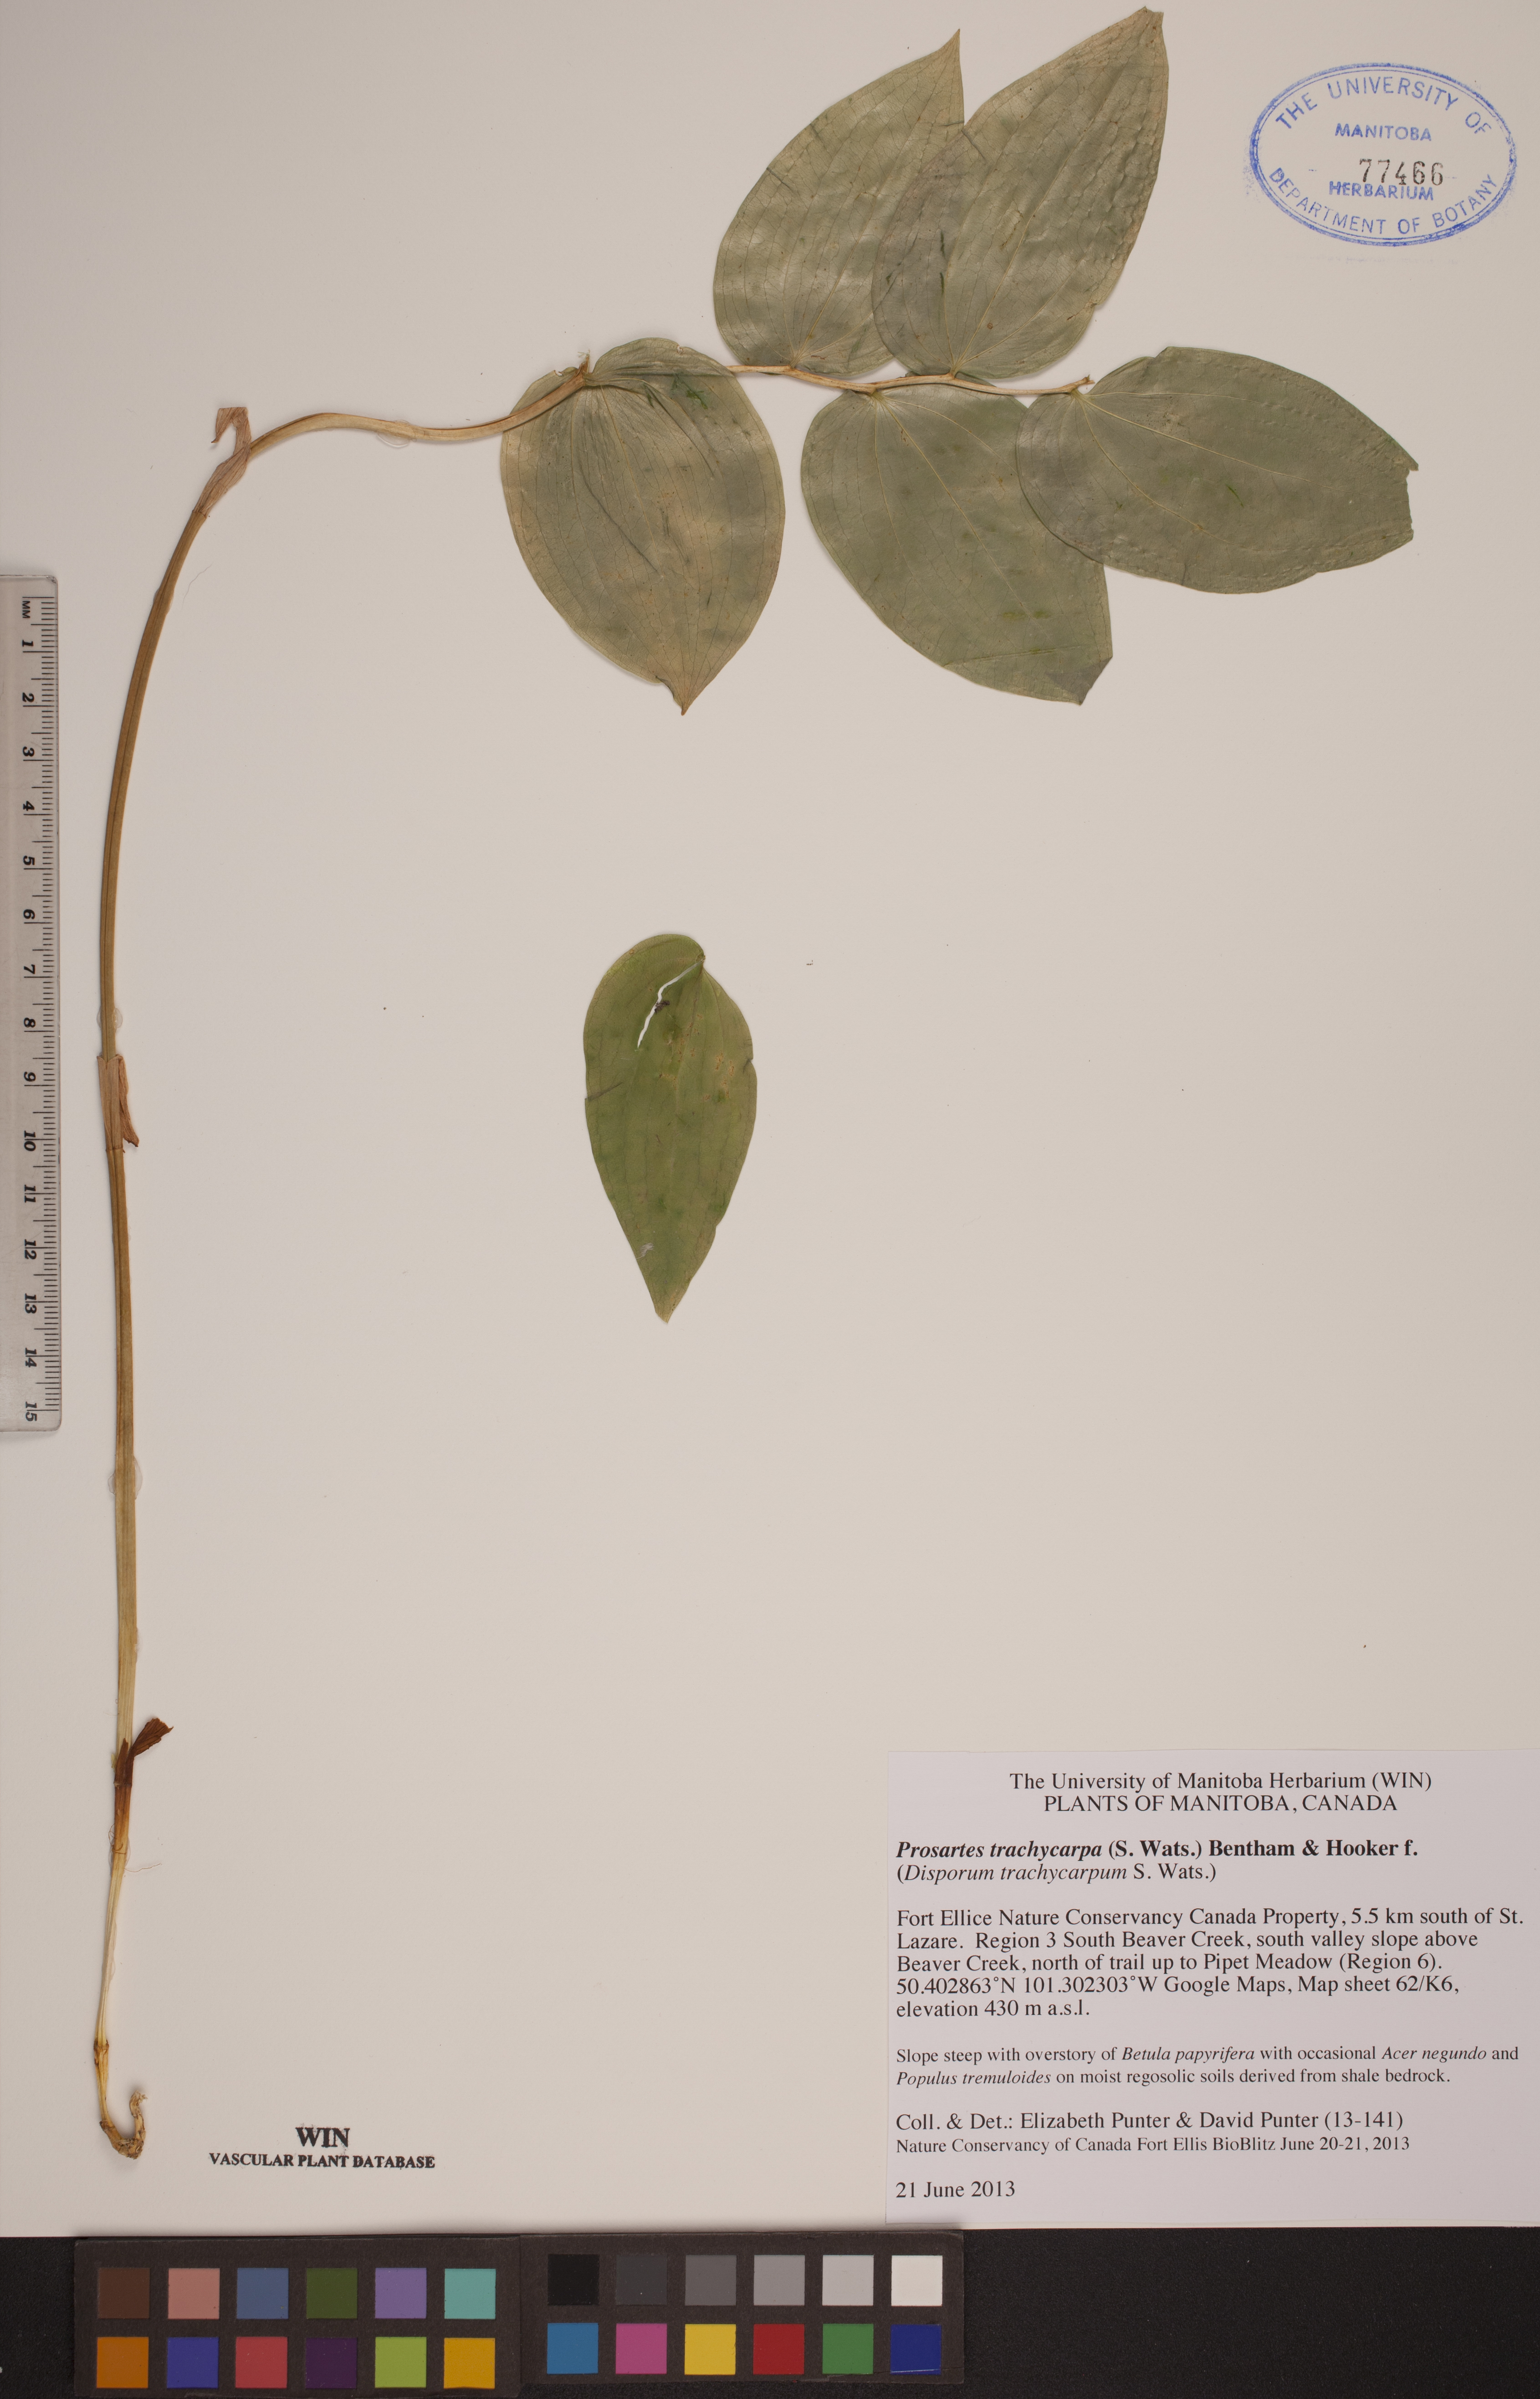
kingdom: Plantae
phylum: Tracheophyta
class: Liliopsida
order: Liliales
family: Liliaceae
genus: Prosartes
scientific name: Prosartes trachycarpa
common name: Rough-fruit fairy-bells
